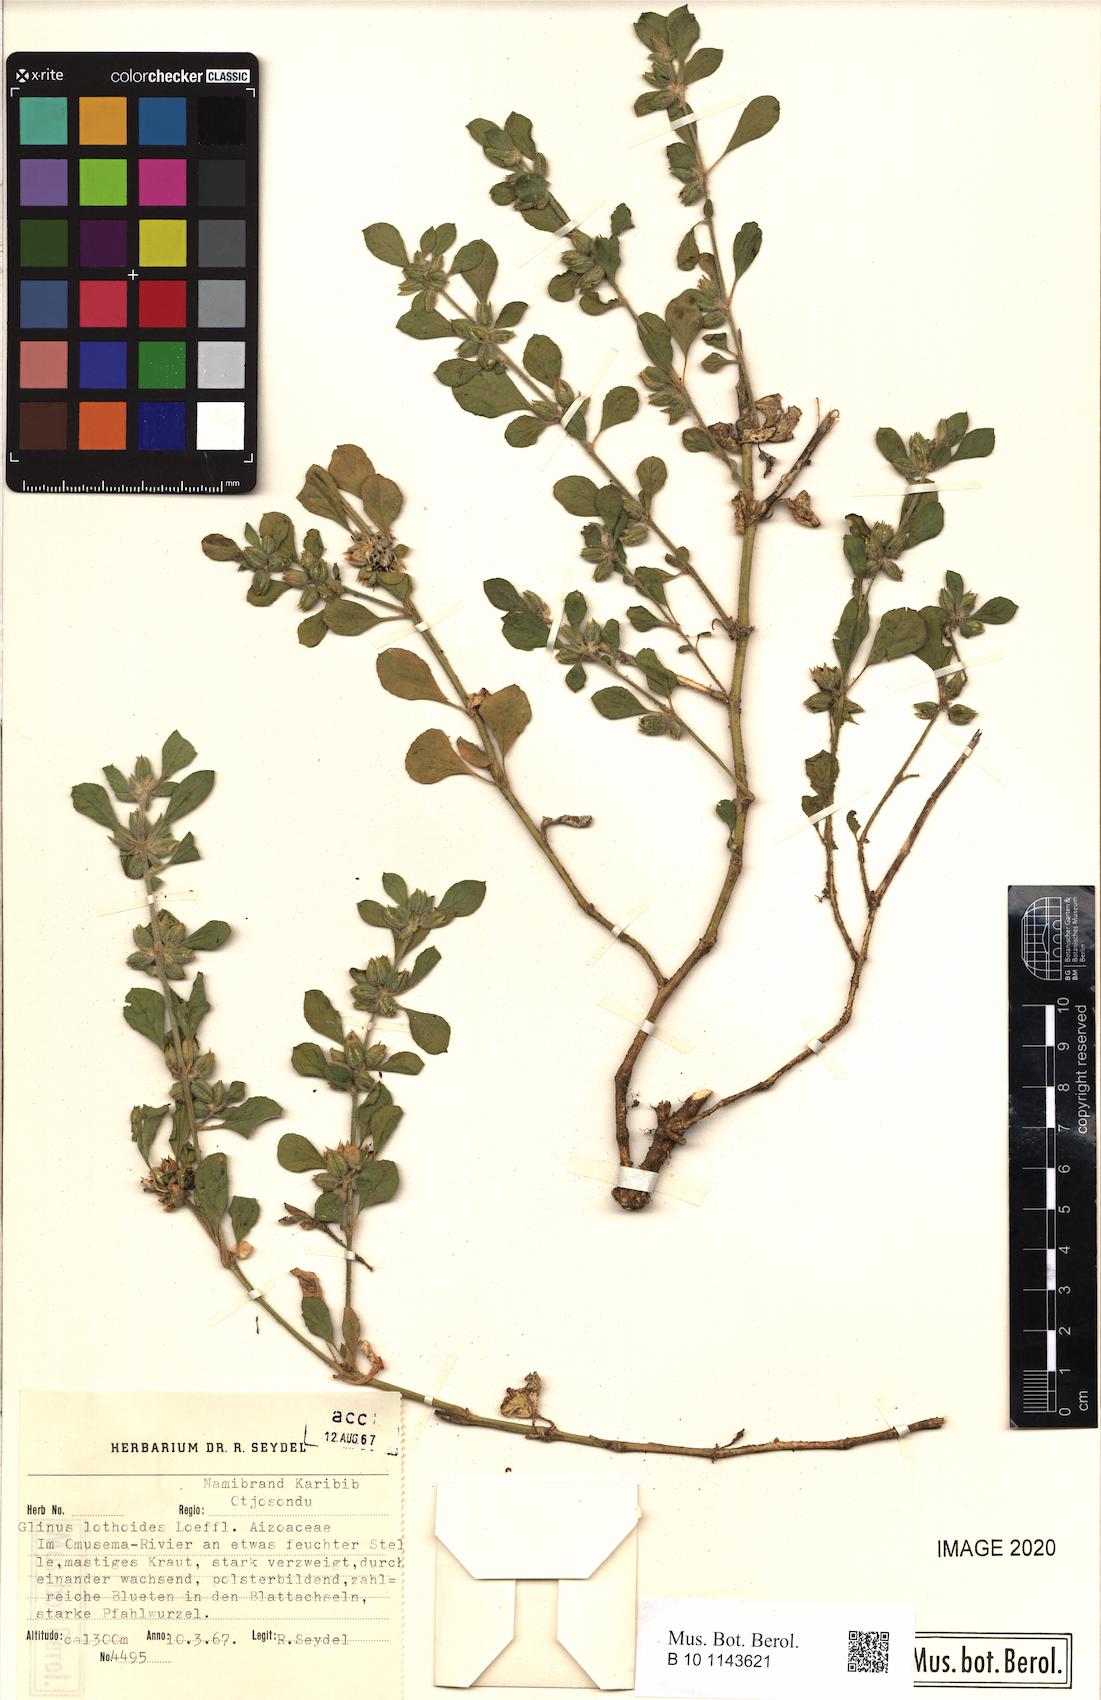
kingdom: Plantae
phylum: Tracheophyta
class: Magnoliopsida
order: Caryophyllales
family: Molluginaceae
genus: Glinus
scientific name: Glinus lotoides
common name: Lotus sweetjuice
